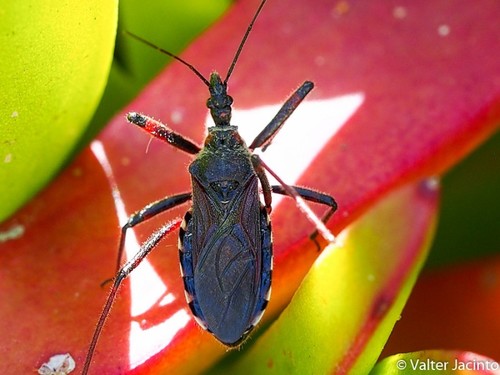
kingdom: Animalia
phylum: Arthropoda
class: Insecta
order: Hemiptera
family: Reduviidae
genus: Rhynocoris
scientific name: Rhynocoris cuspidatus
